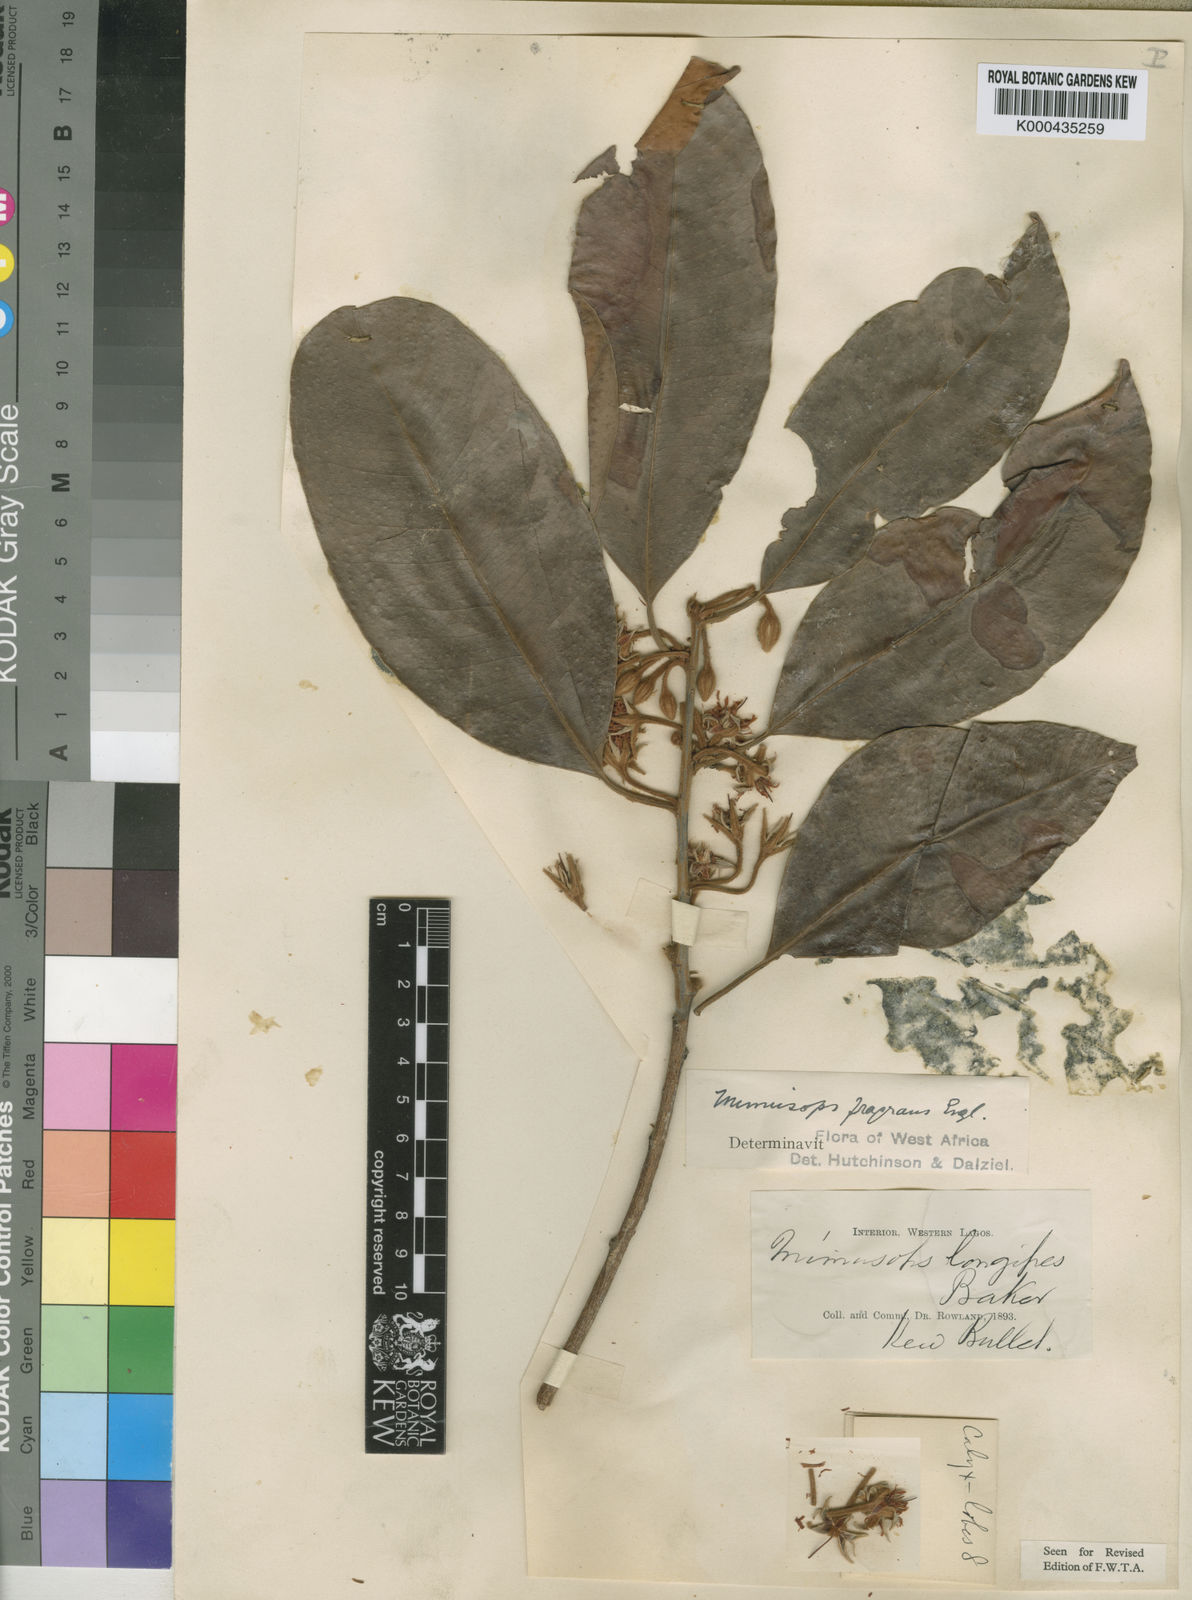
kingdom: Plantae
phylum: Tracheophyta
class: Magnoliopsida
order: Ericales
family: Sapotaceae
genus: Mimusops
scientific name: Mimusops kummel
